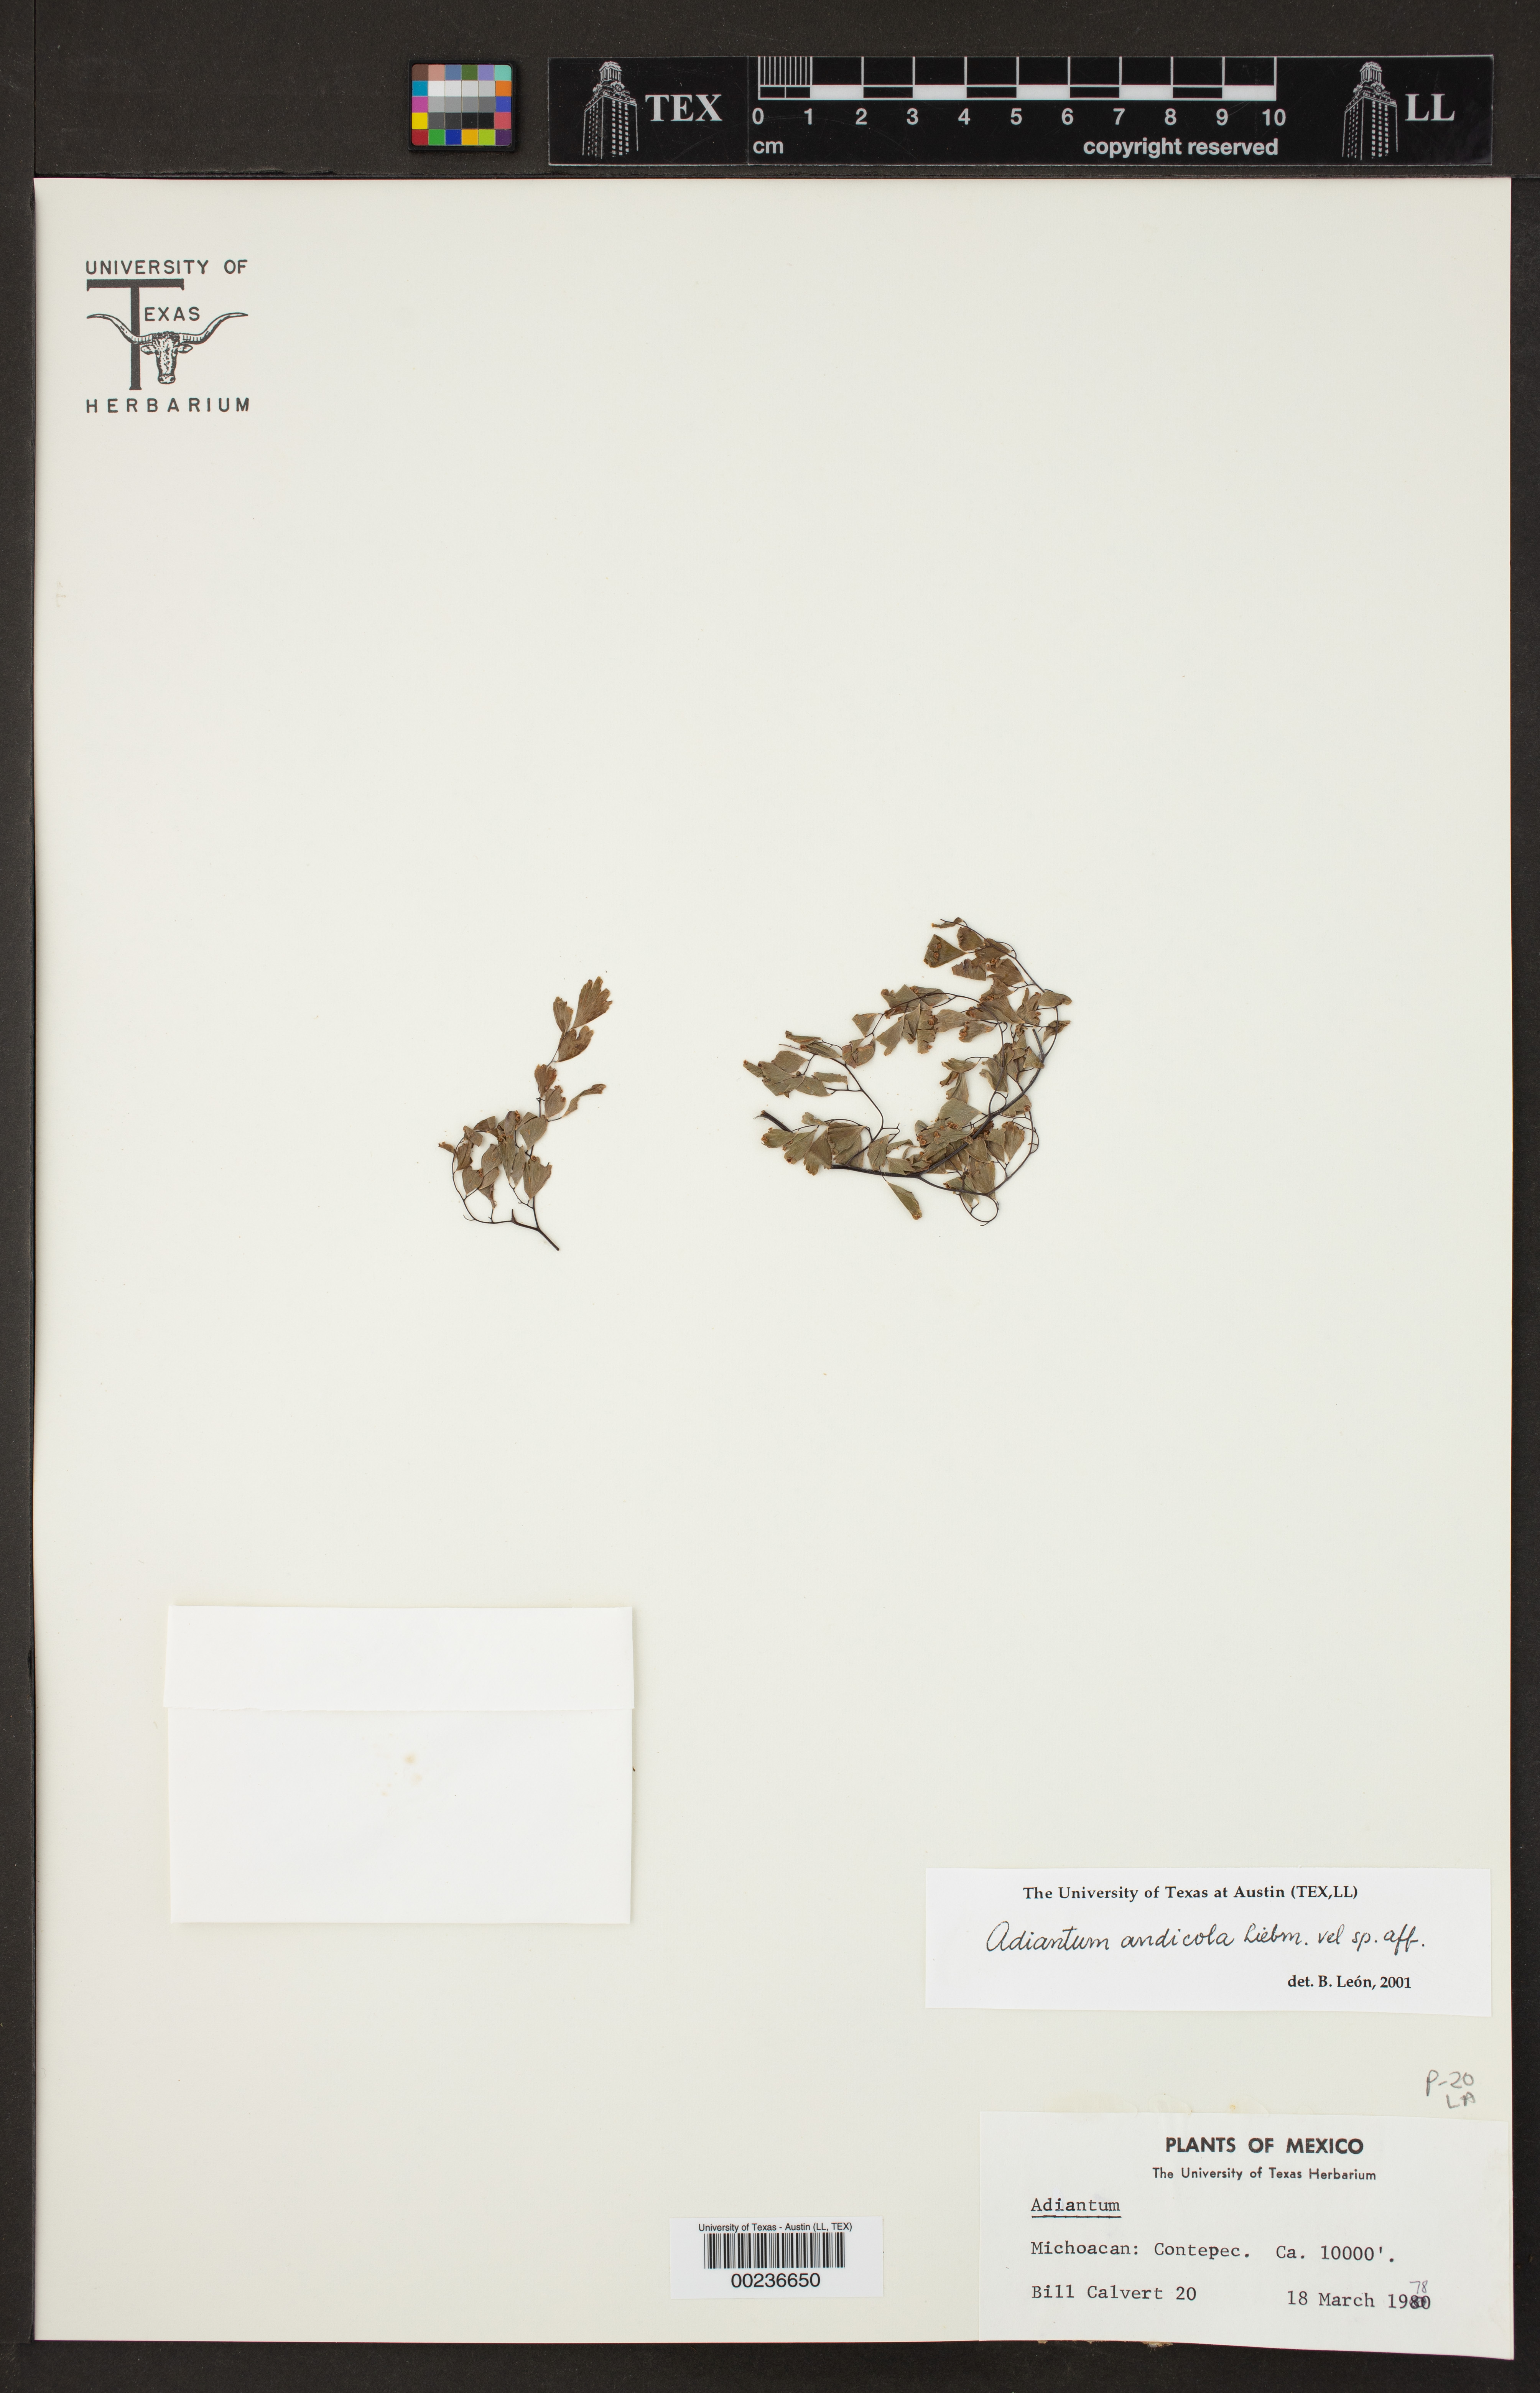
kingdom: Plantae
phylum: Tracheophyta
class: Polypodiopsida
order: Polypodiales
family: Pteridaceae
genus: Adiantum
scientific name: Adiantum andicola
